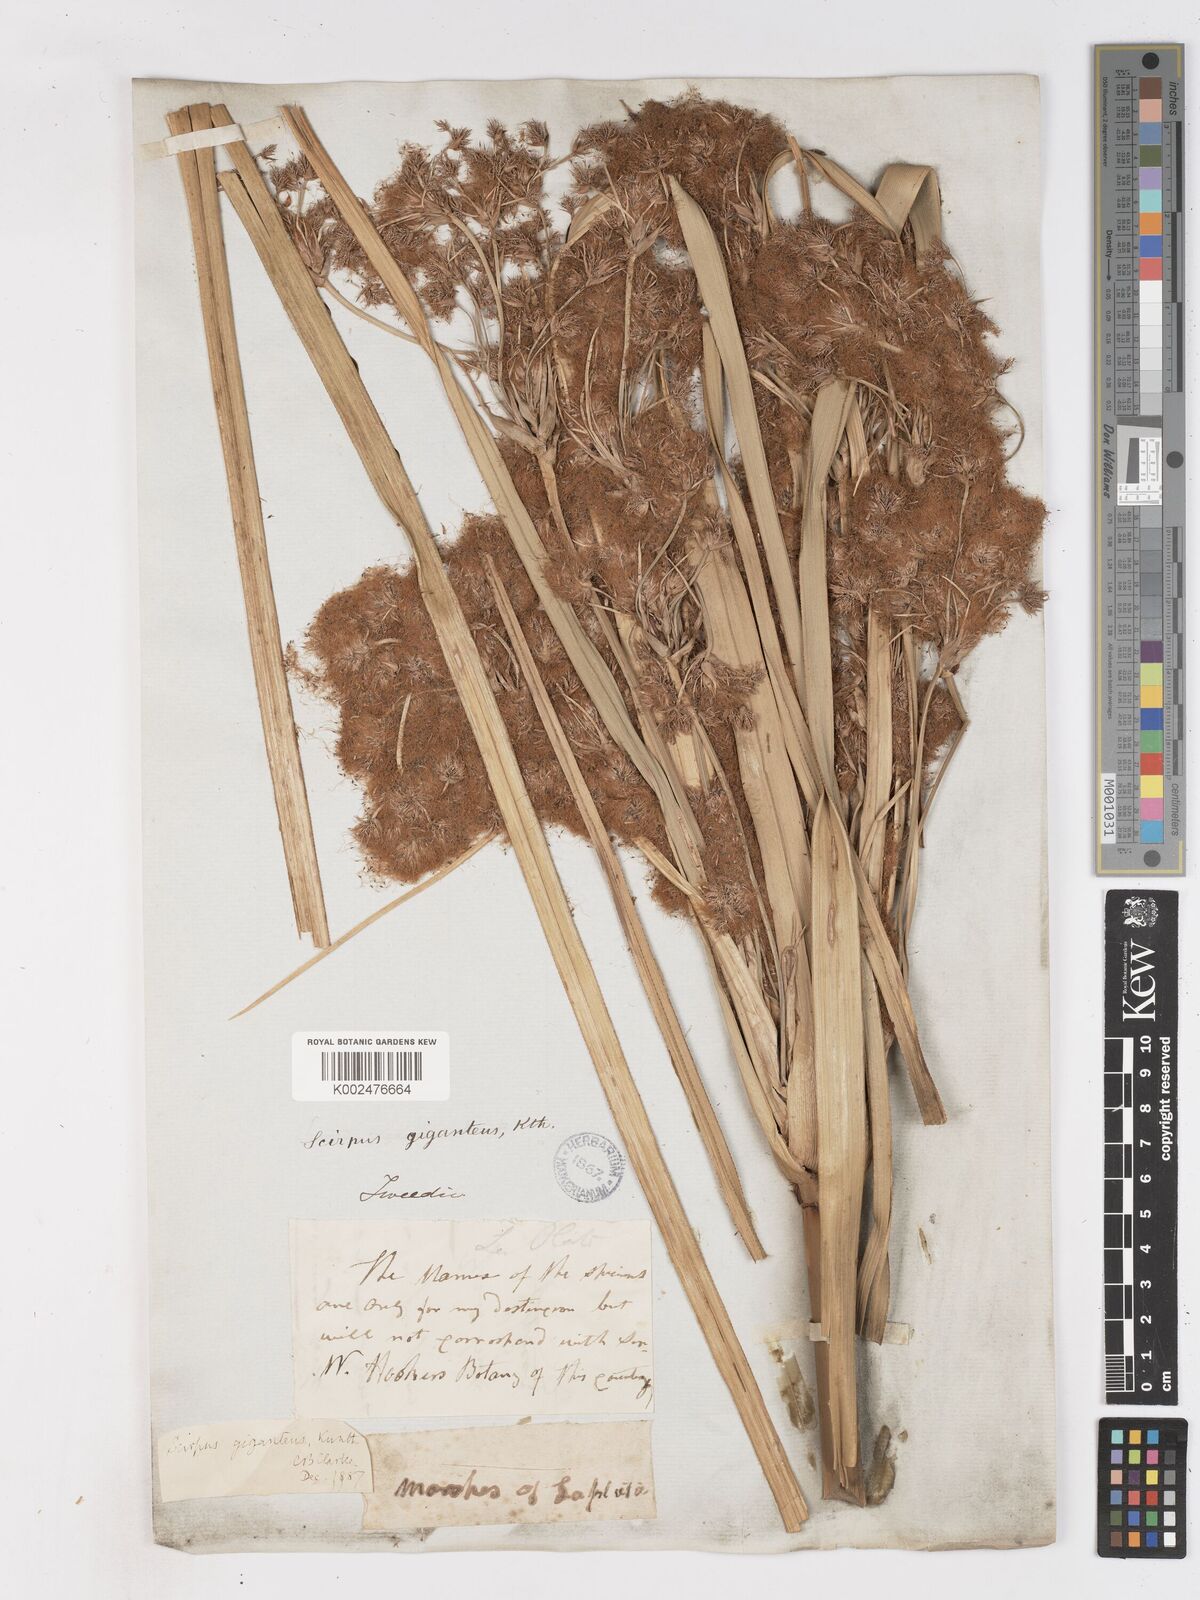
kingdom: Plantae
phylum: Tracheophyta
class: Liliopsida
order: Poales
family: Cyperaceae
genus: Cyperus
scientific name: Cyperus byssaceus
